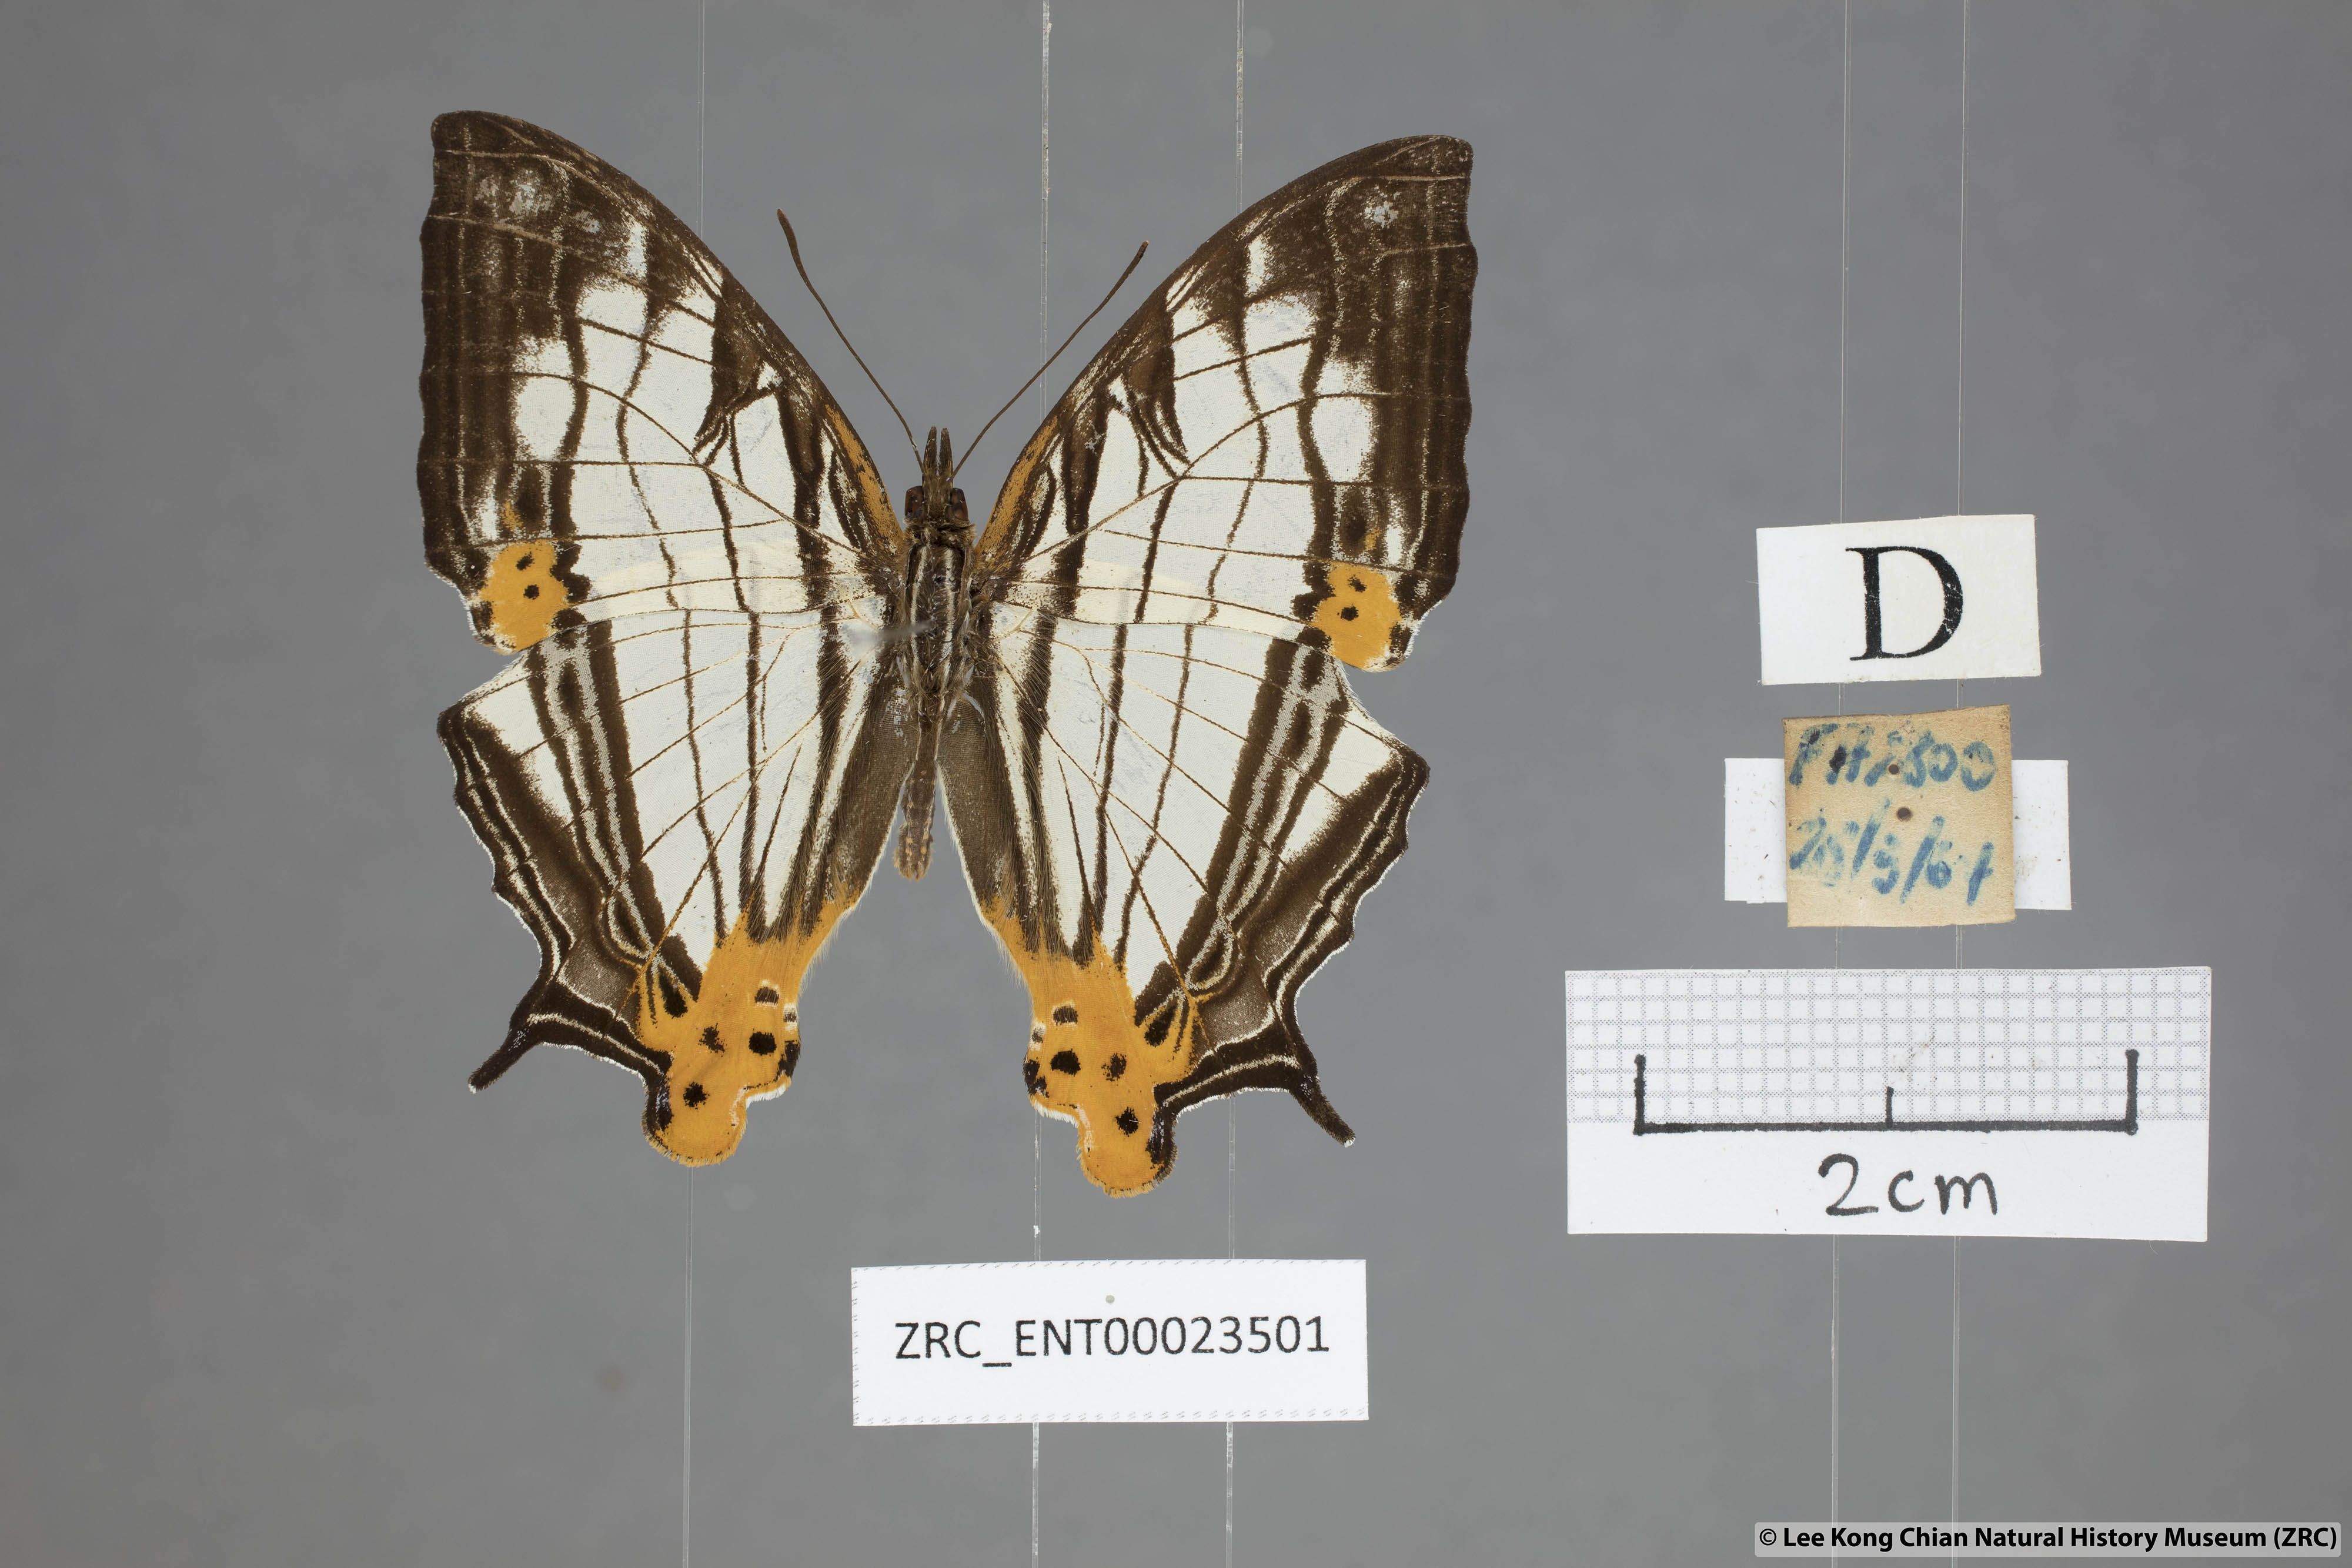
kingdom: Animalia
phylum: Arthropoda
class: Insecta
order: Lepidoptera
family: Nymphalidae
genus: Cyrestis
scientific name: Cyrestis maenalis
